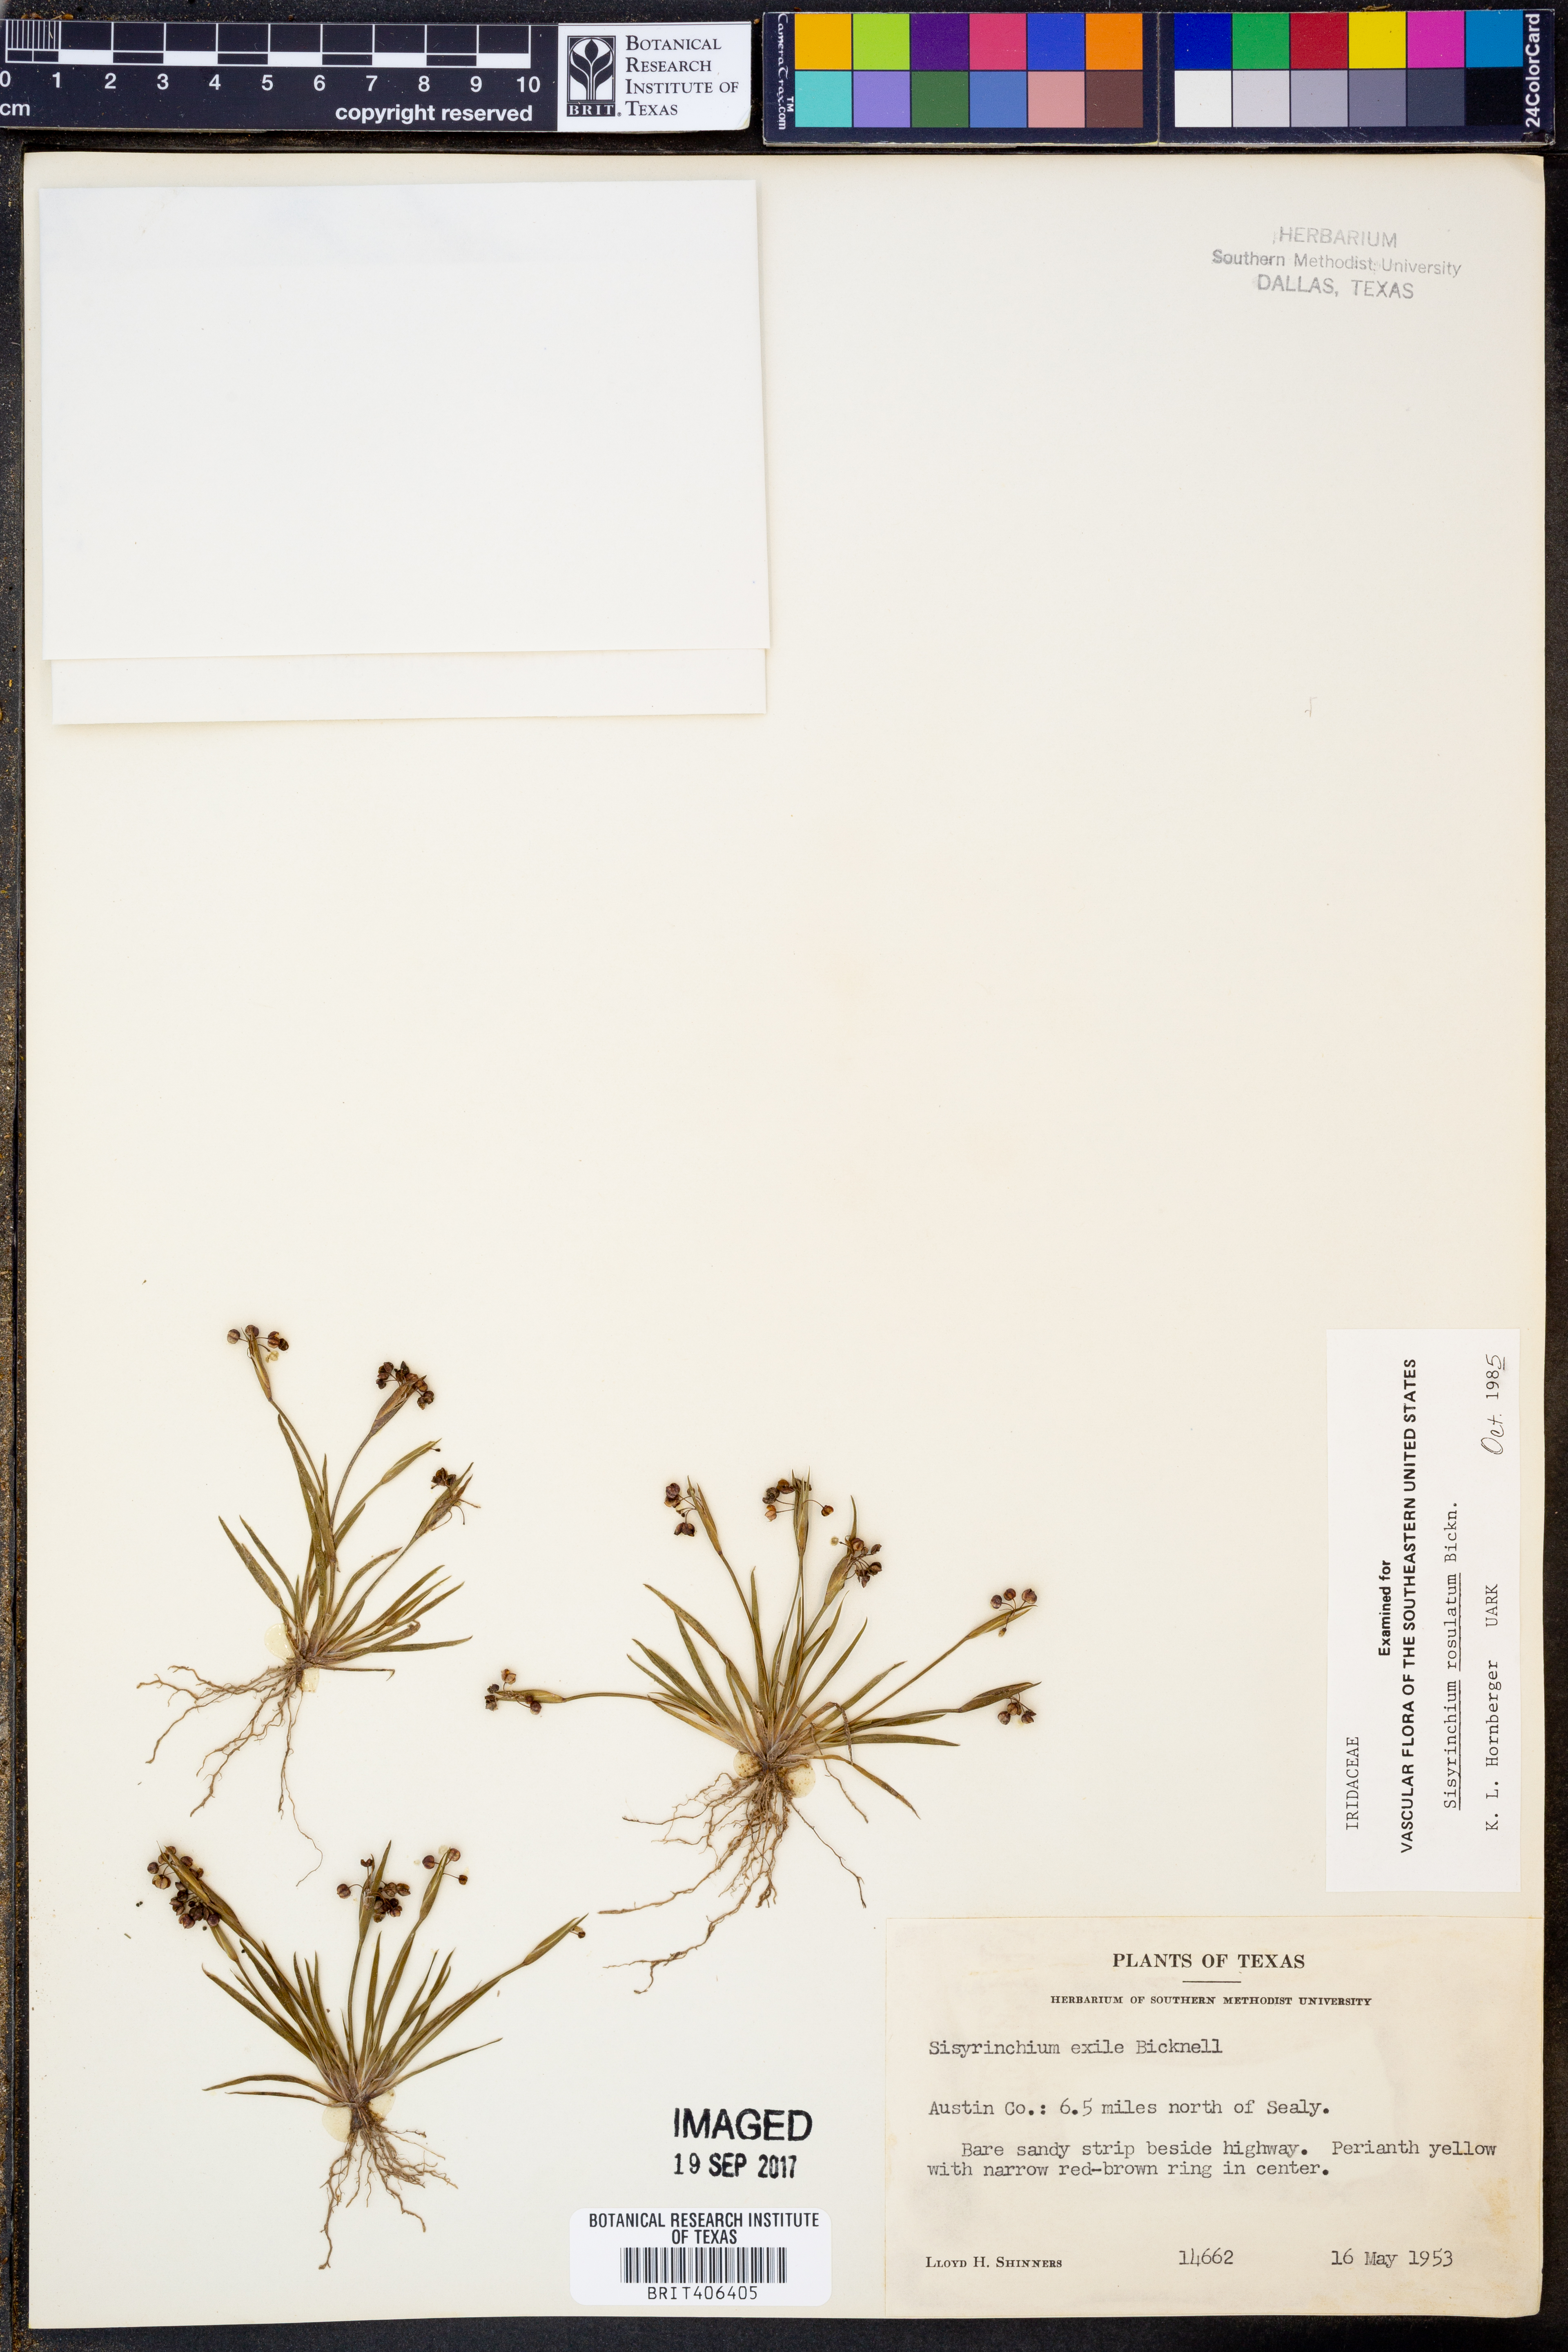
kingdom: Plantae
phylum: Tracheophyta
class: Liliopsida
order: Asparagales
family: Iridaceae
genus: Sisyrinchium
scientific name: Sisyrinchium rosulatum
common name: Annual blue-eyed grass
